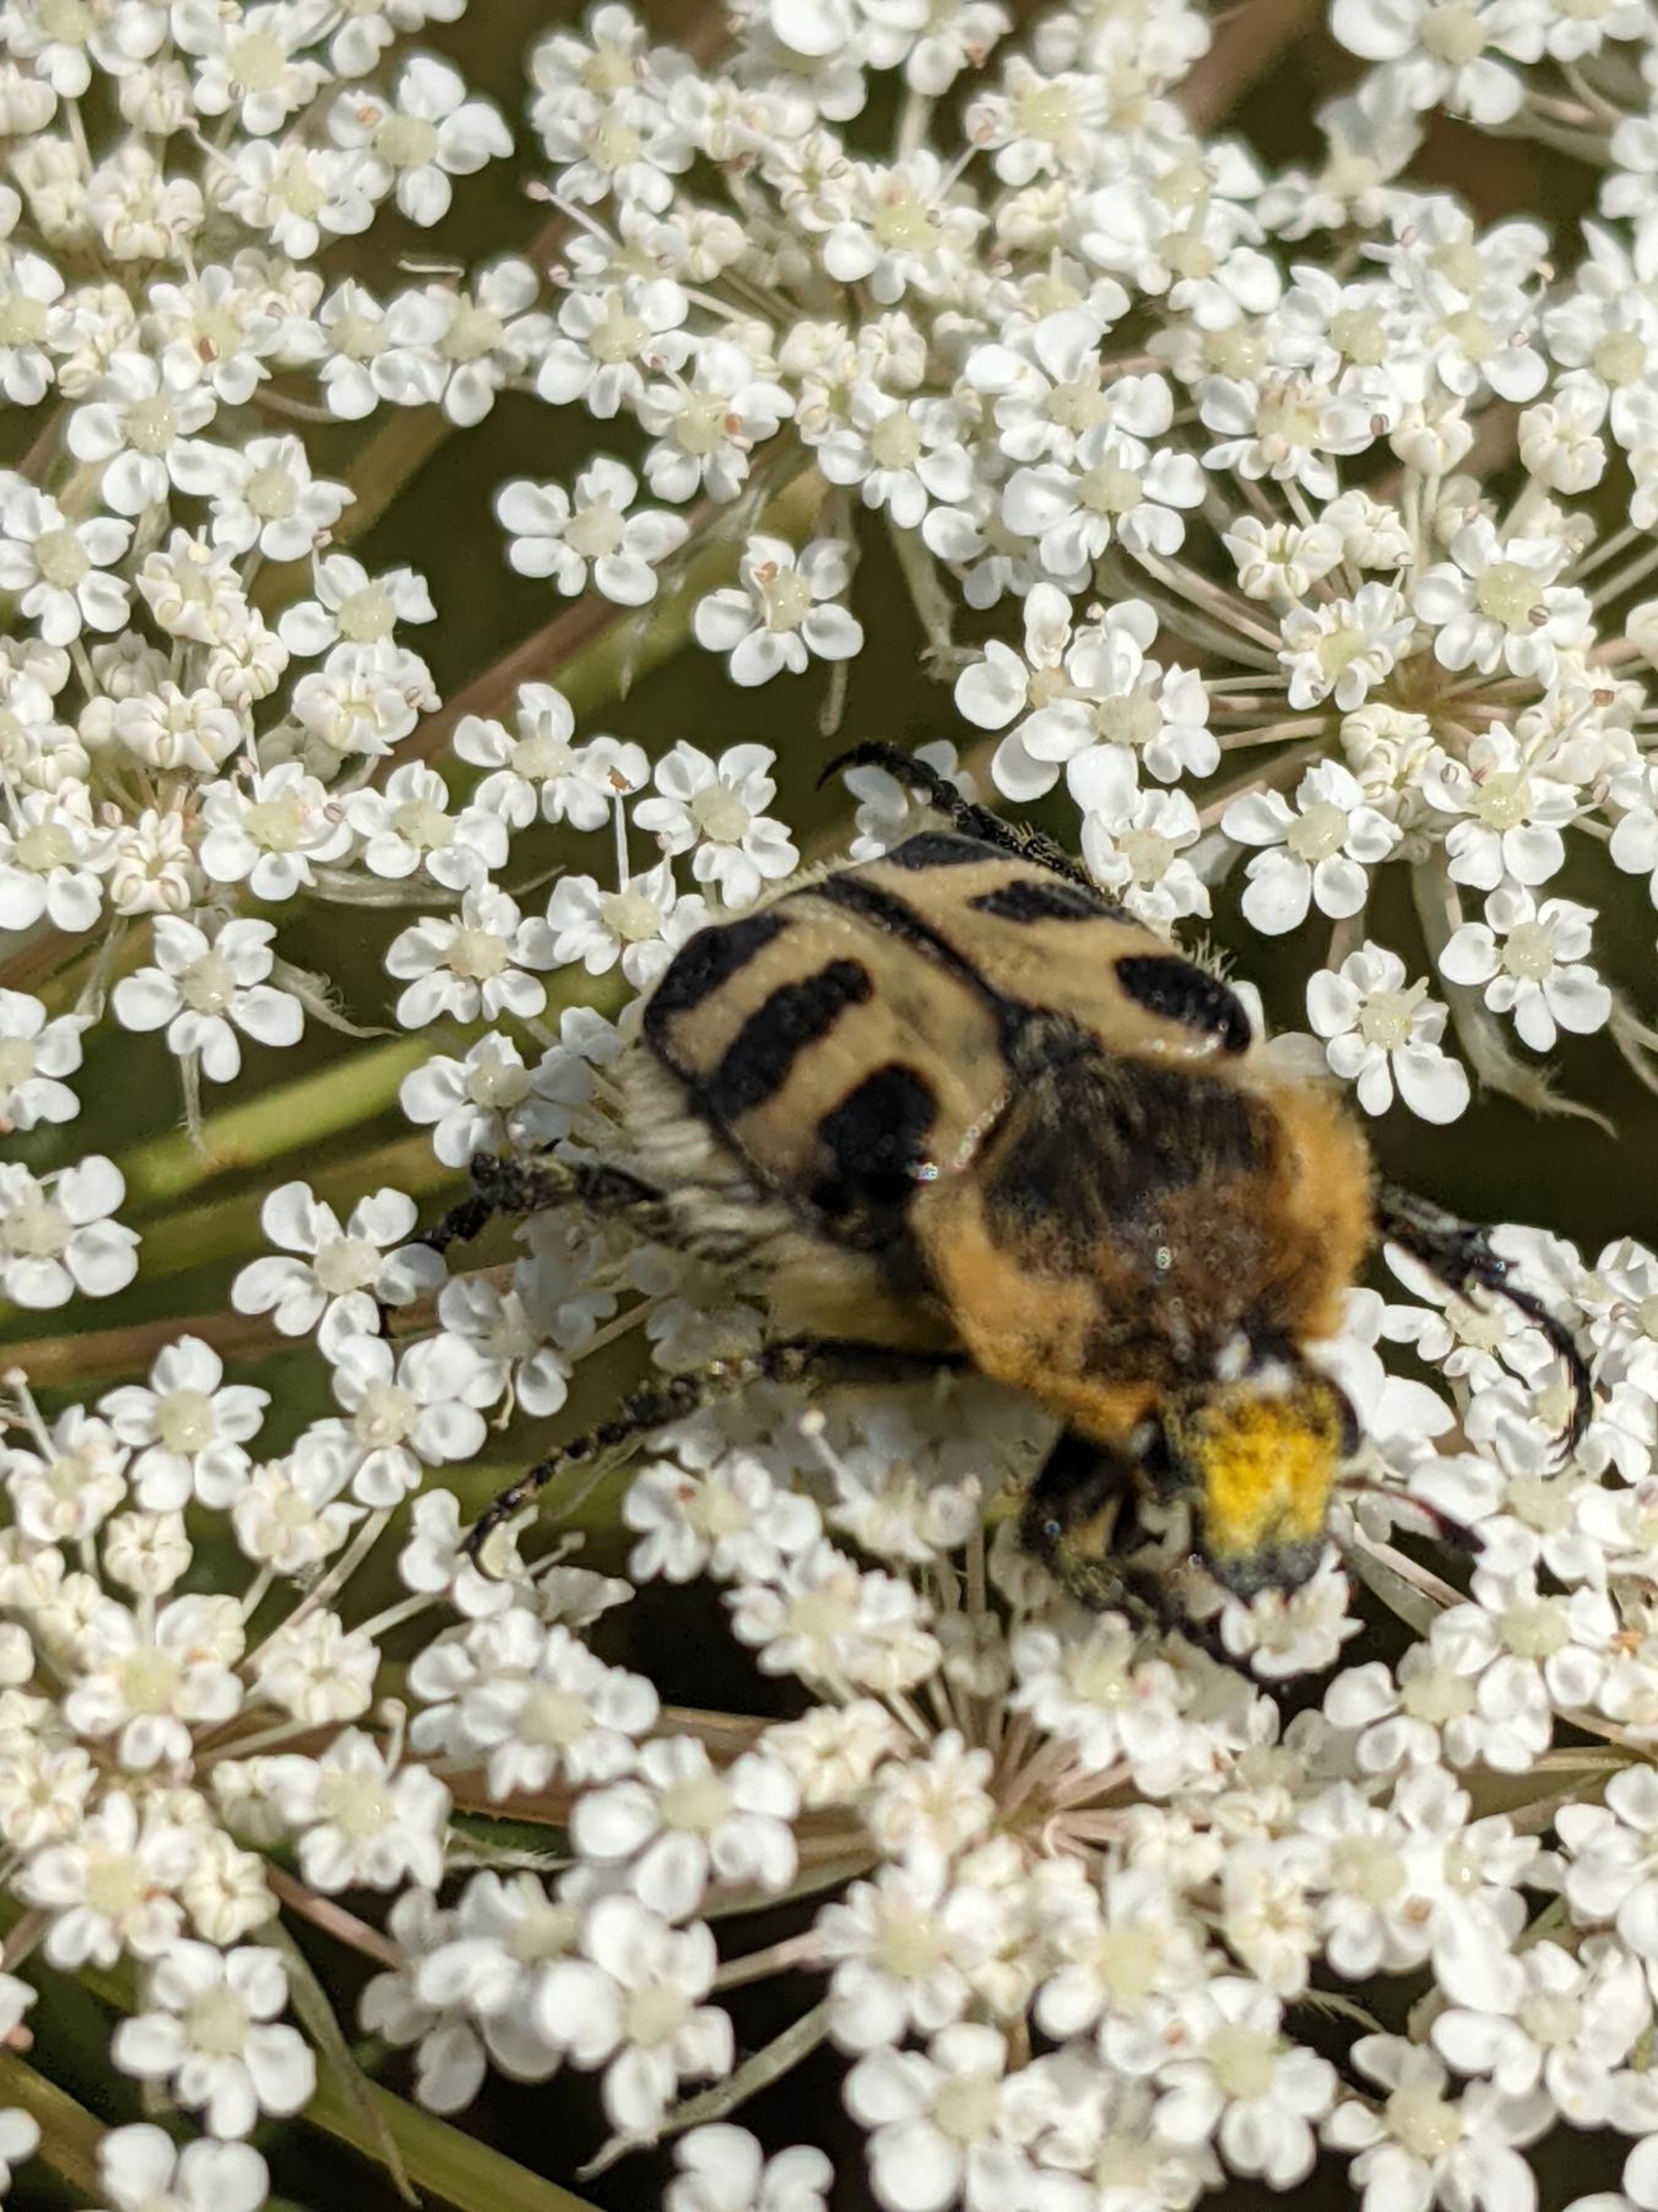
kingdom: Animalia
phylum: Arthropoda
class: Insecta
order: Coleoptera
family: Scarabaeidae
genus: Trichius
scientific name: Trichius gallicus
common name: Lille humlebille
